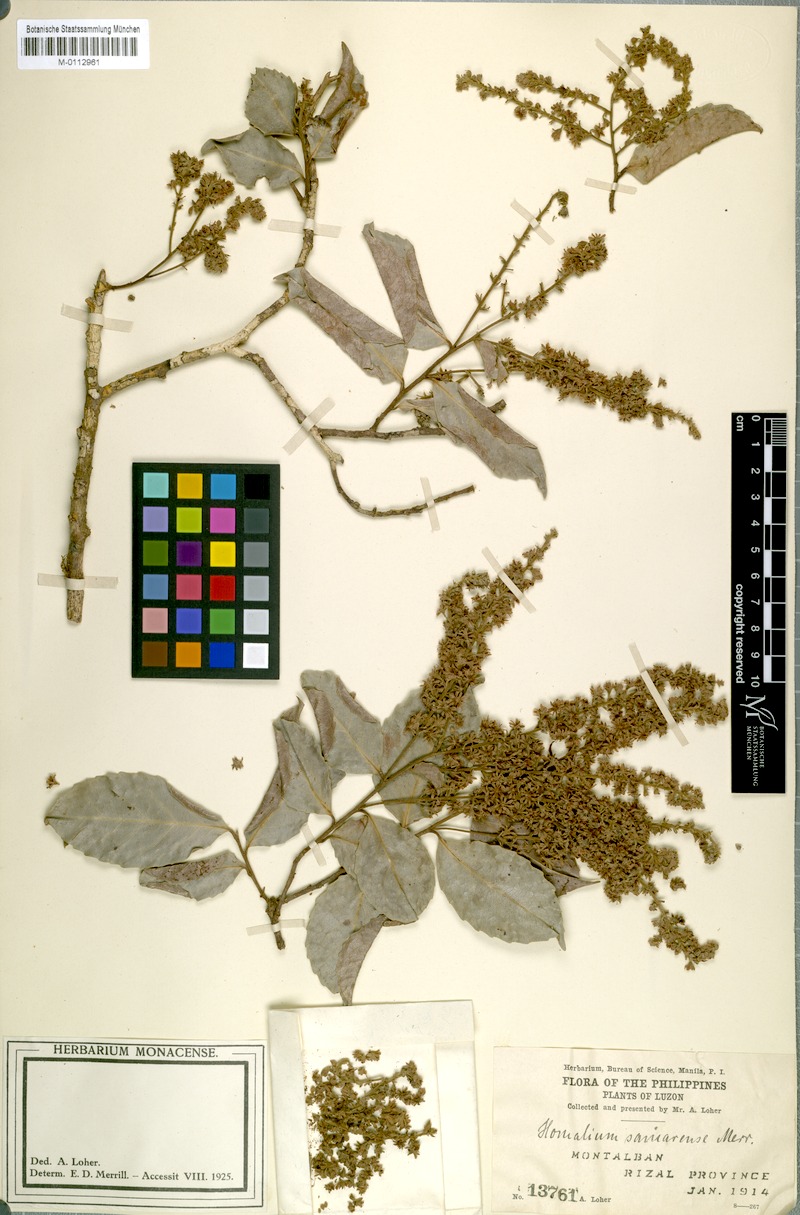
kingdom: Plantae
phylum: Tracheophyta
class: Magnoliopsida
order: Malpighiales
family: Salicaceae
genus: Homalium
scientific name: Homalium samarense
